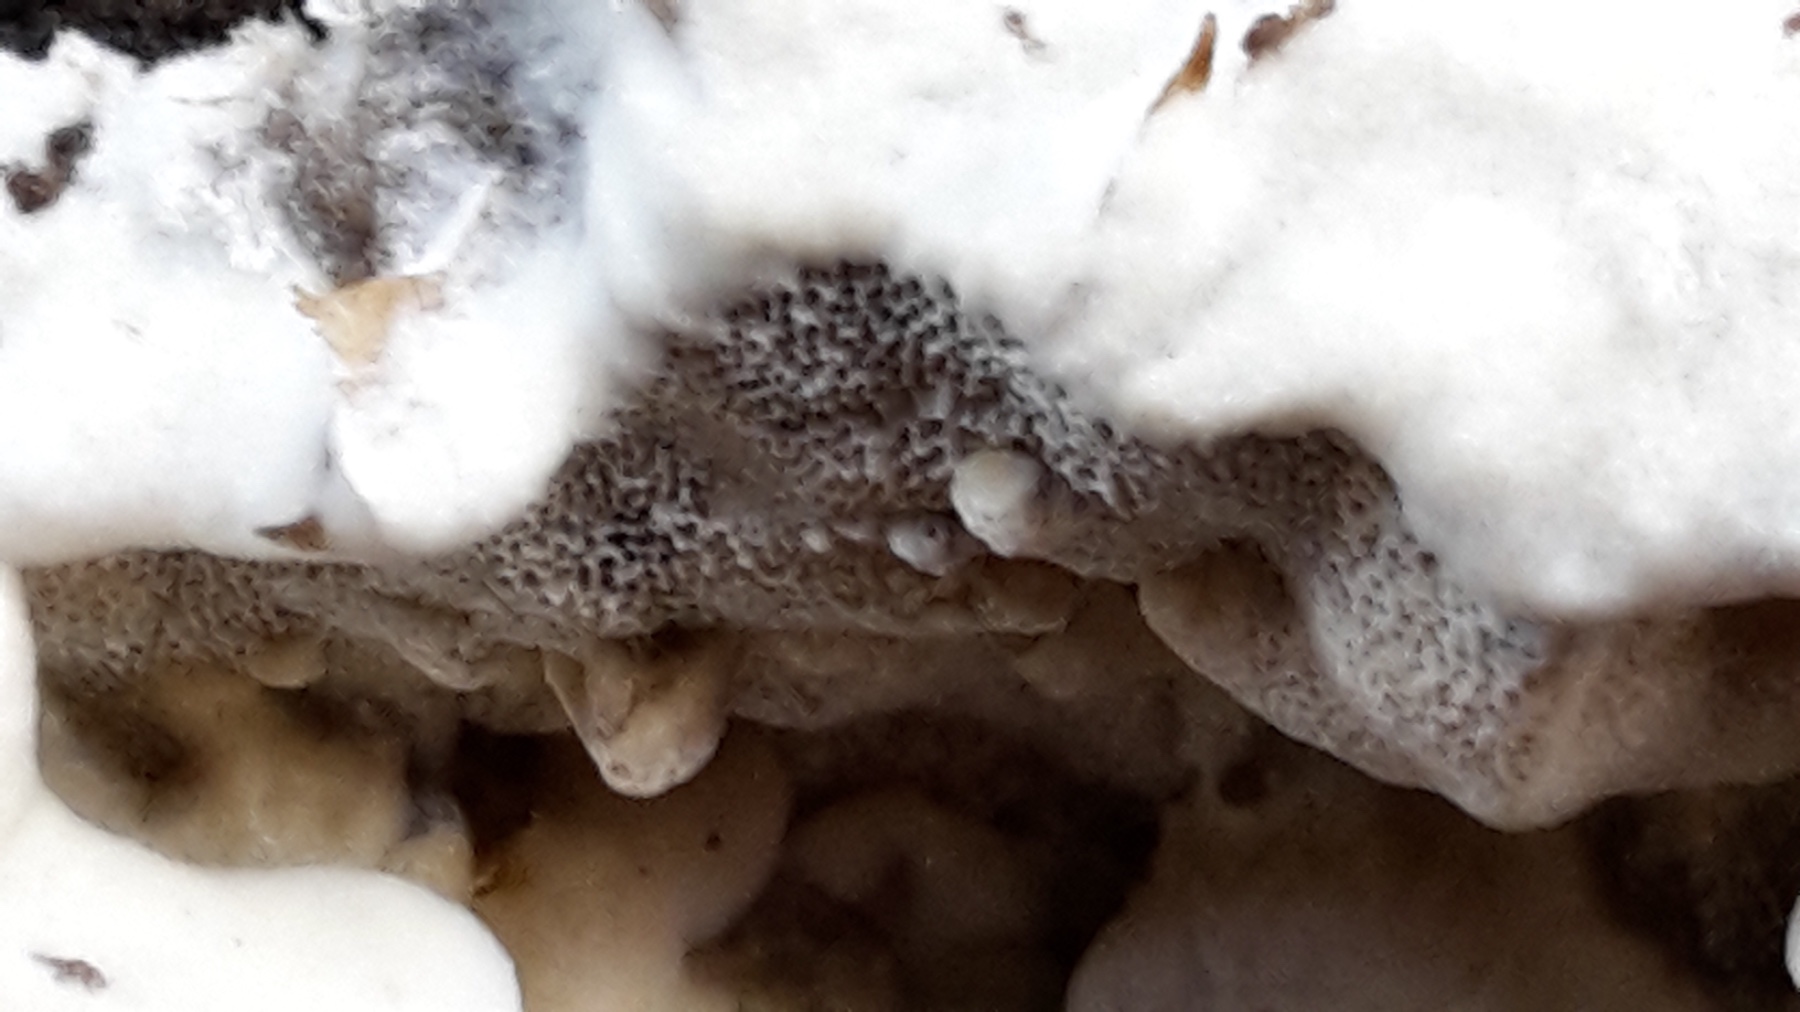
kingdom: Fungi
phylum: Basidiomycota
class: Agaricomycetes
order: Polyporales
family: Phanerochaetaceae
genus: Bjerkandera
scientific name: Bjerkandera adusta
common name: sveden sodporesvamp
